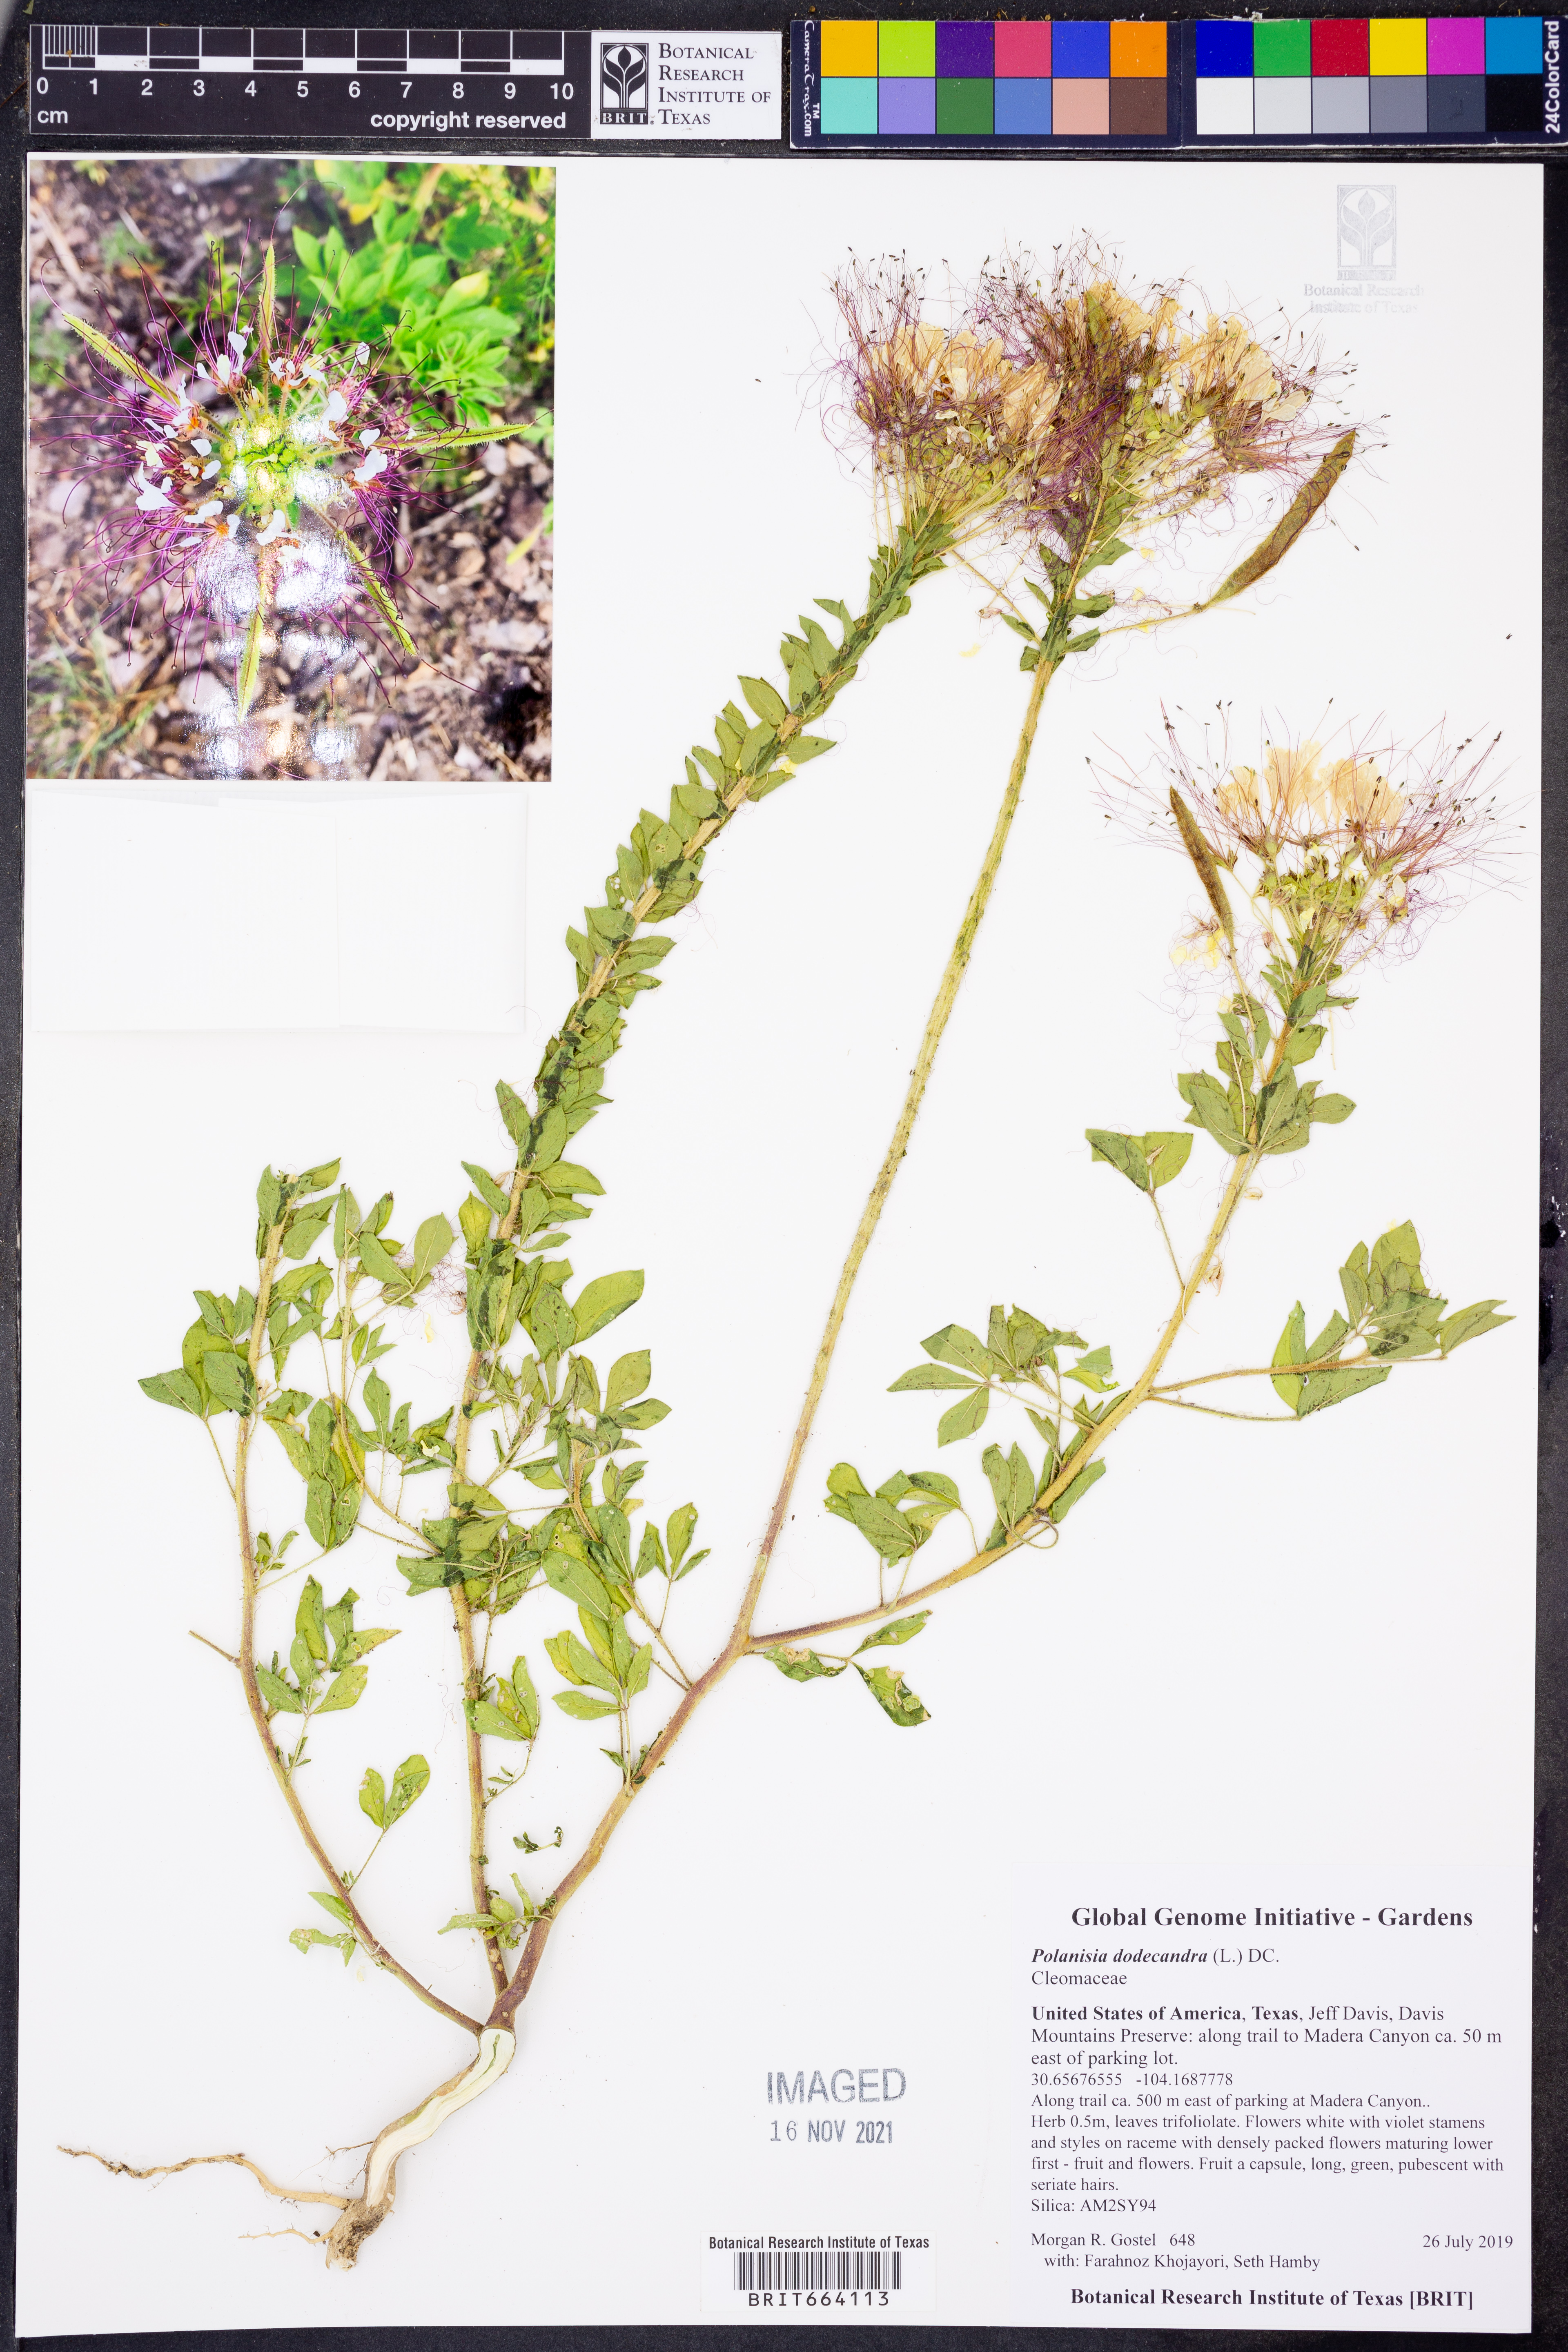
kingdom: Plantae
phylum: Tracheophyta
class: Magnoliopsida
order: Brassicales
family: Cleomaceae
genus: Polanisia
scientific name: Polanisia dodecandra
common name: Clammyweed
